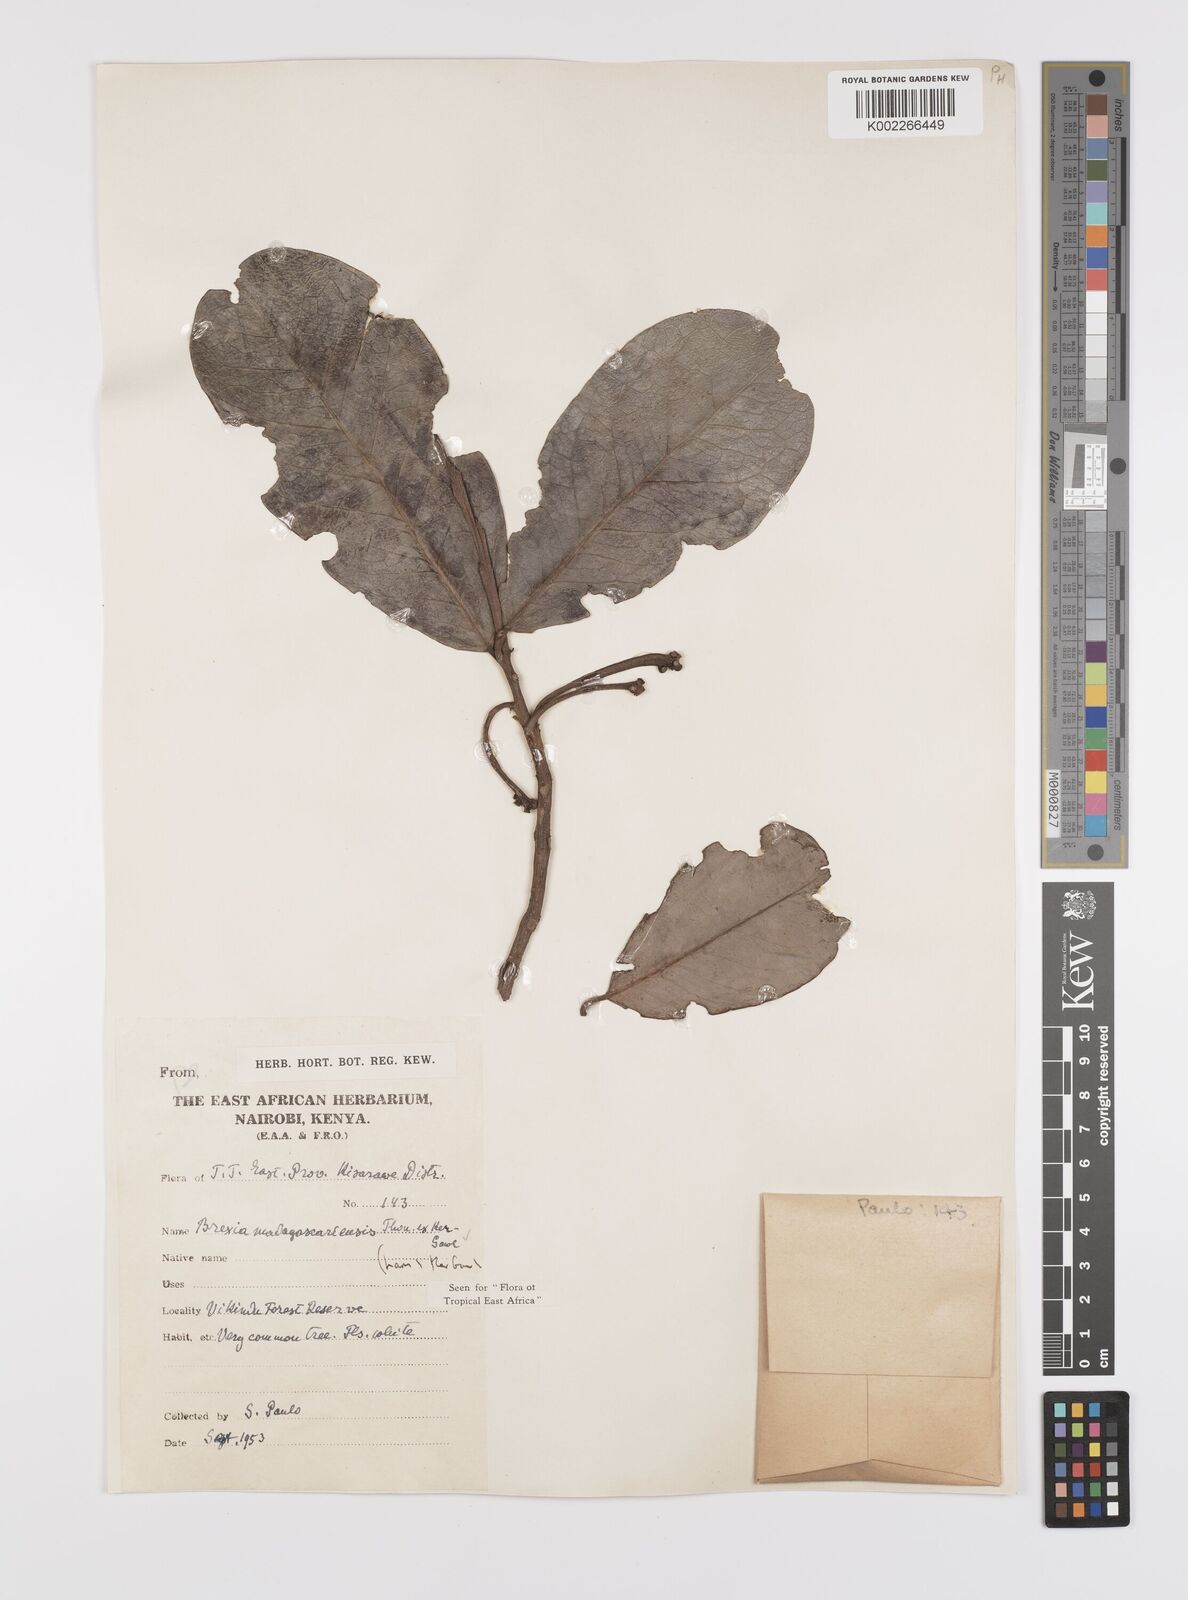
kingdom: Plantae
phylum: Tracheophyta
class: Magnoliopsida
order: Celastrales
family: Celastraceae
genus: Brexia
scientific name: Brexia madagascariensis
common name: Brexia
